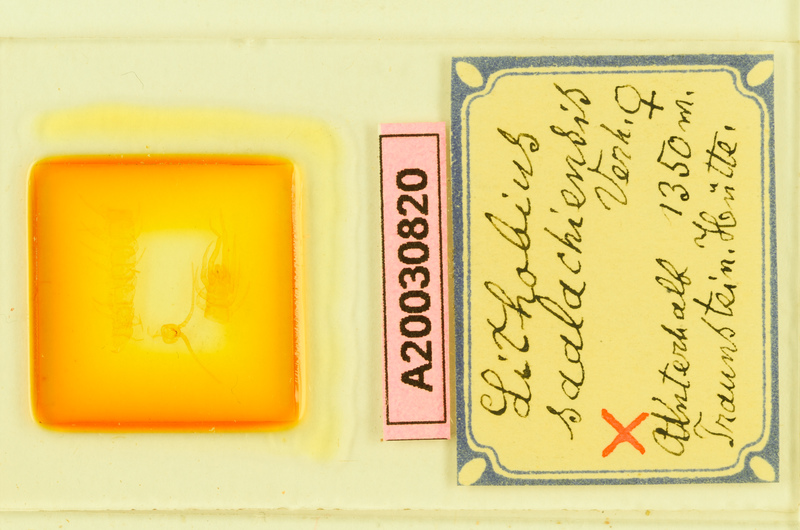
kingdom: Animalia
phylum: Arthropoda
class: Chilopoda
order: Lithobiomorpha
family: Lithobiidae
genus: Lithobius
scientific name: Lithobius borealis
